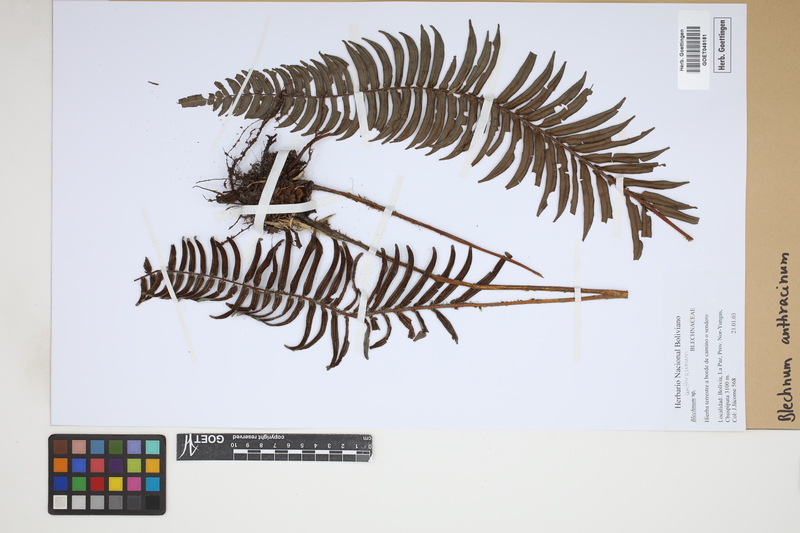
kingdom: Plantae
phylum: Tracheophyta
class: Polypodiopsida
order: Polypodiales
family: Blechnaceae
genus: Blechnum
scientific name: Blechnum anthracinum
